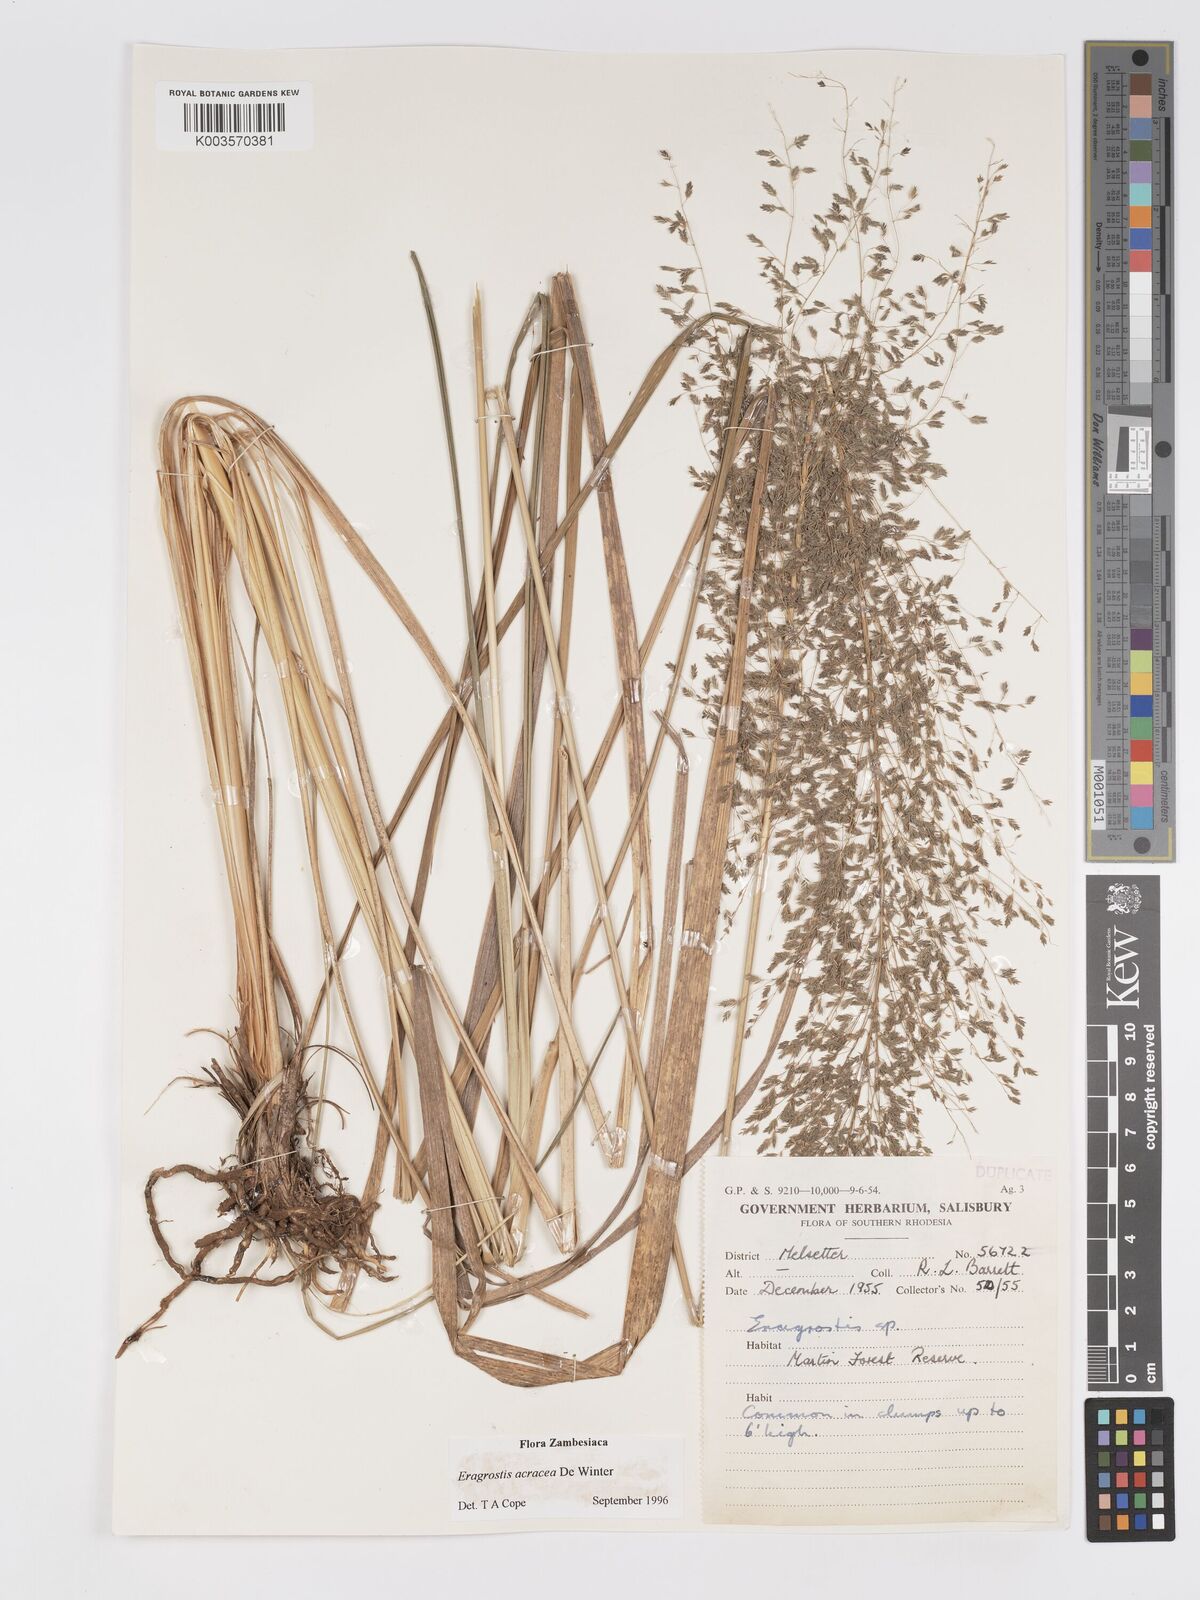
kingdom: Plantae
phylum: Tracheophyta
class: Liliopsida
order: Poales
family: Poaceae
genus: Eragrostis
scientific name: Eragrostis acraea
